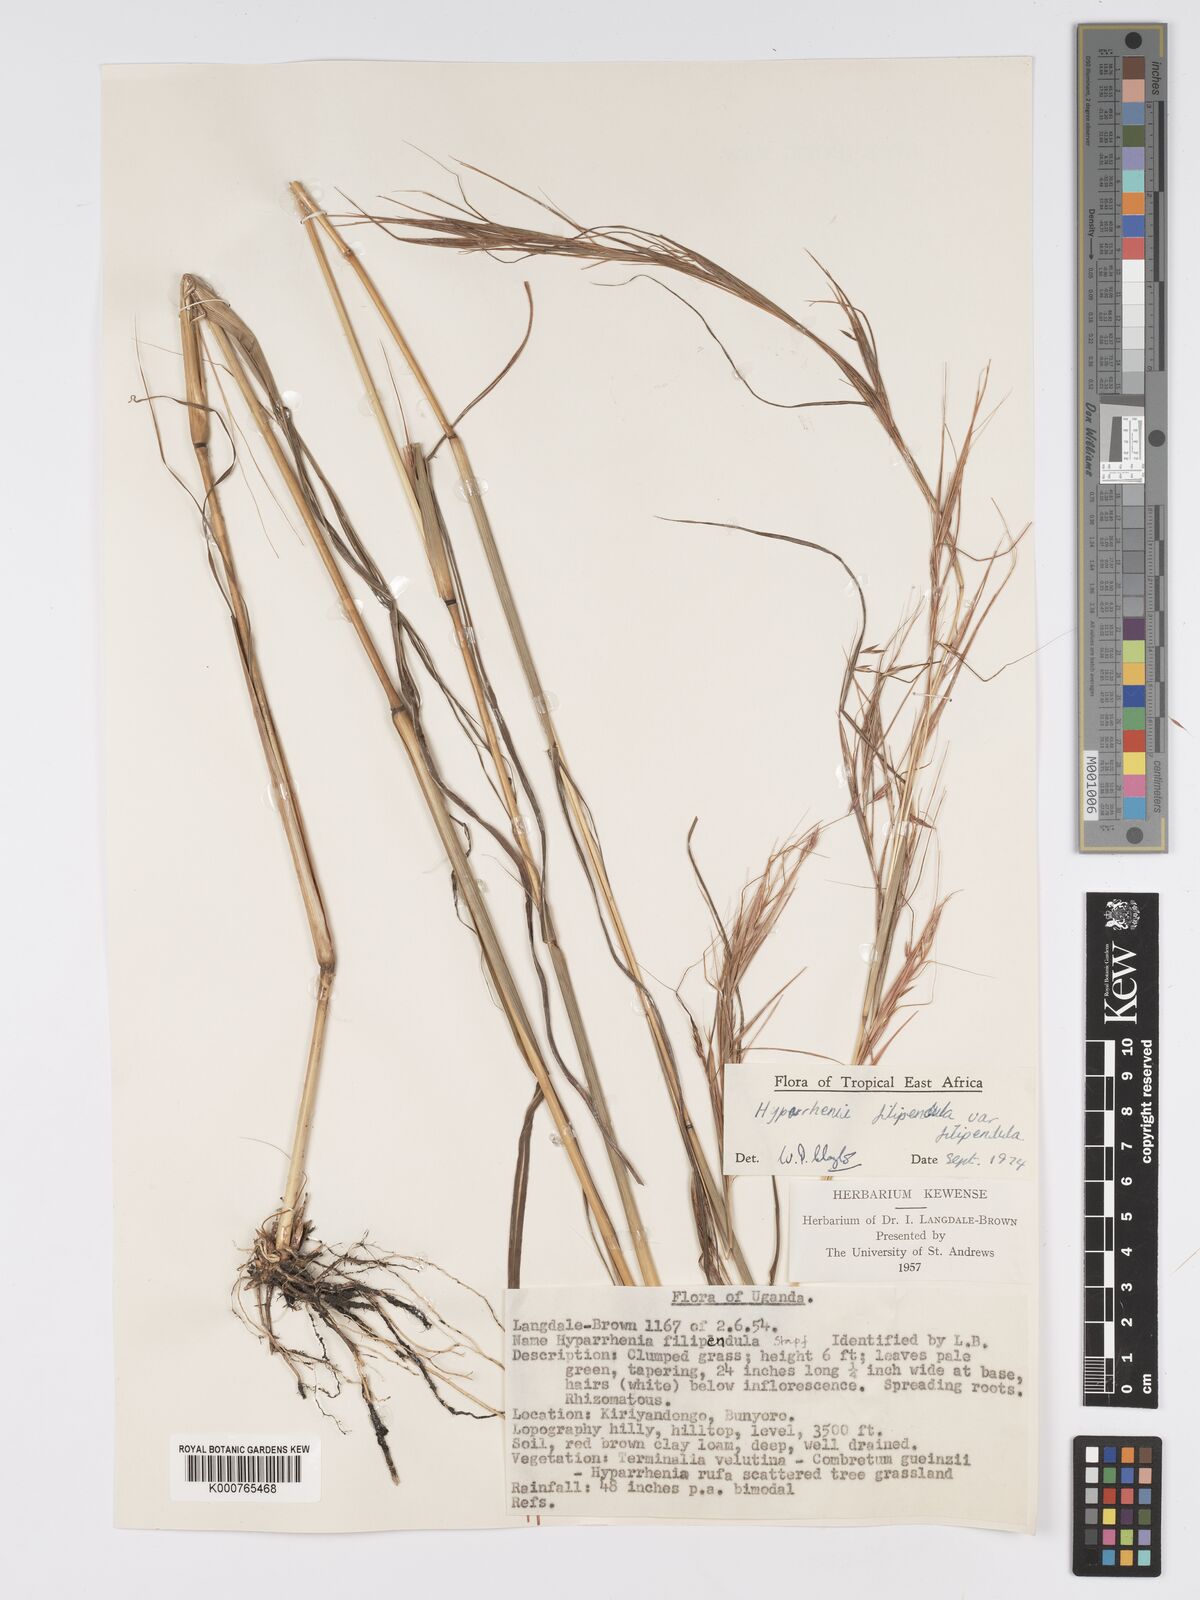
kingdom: Plantae
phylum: Tracheophyta
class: Liliopsida
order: Poales
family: Poaceae
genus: Hyparrhenia
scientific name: Hyparrhenia filipendula
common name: Tambookie grass
